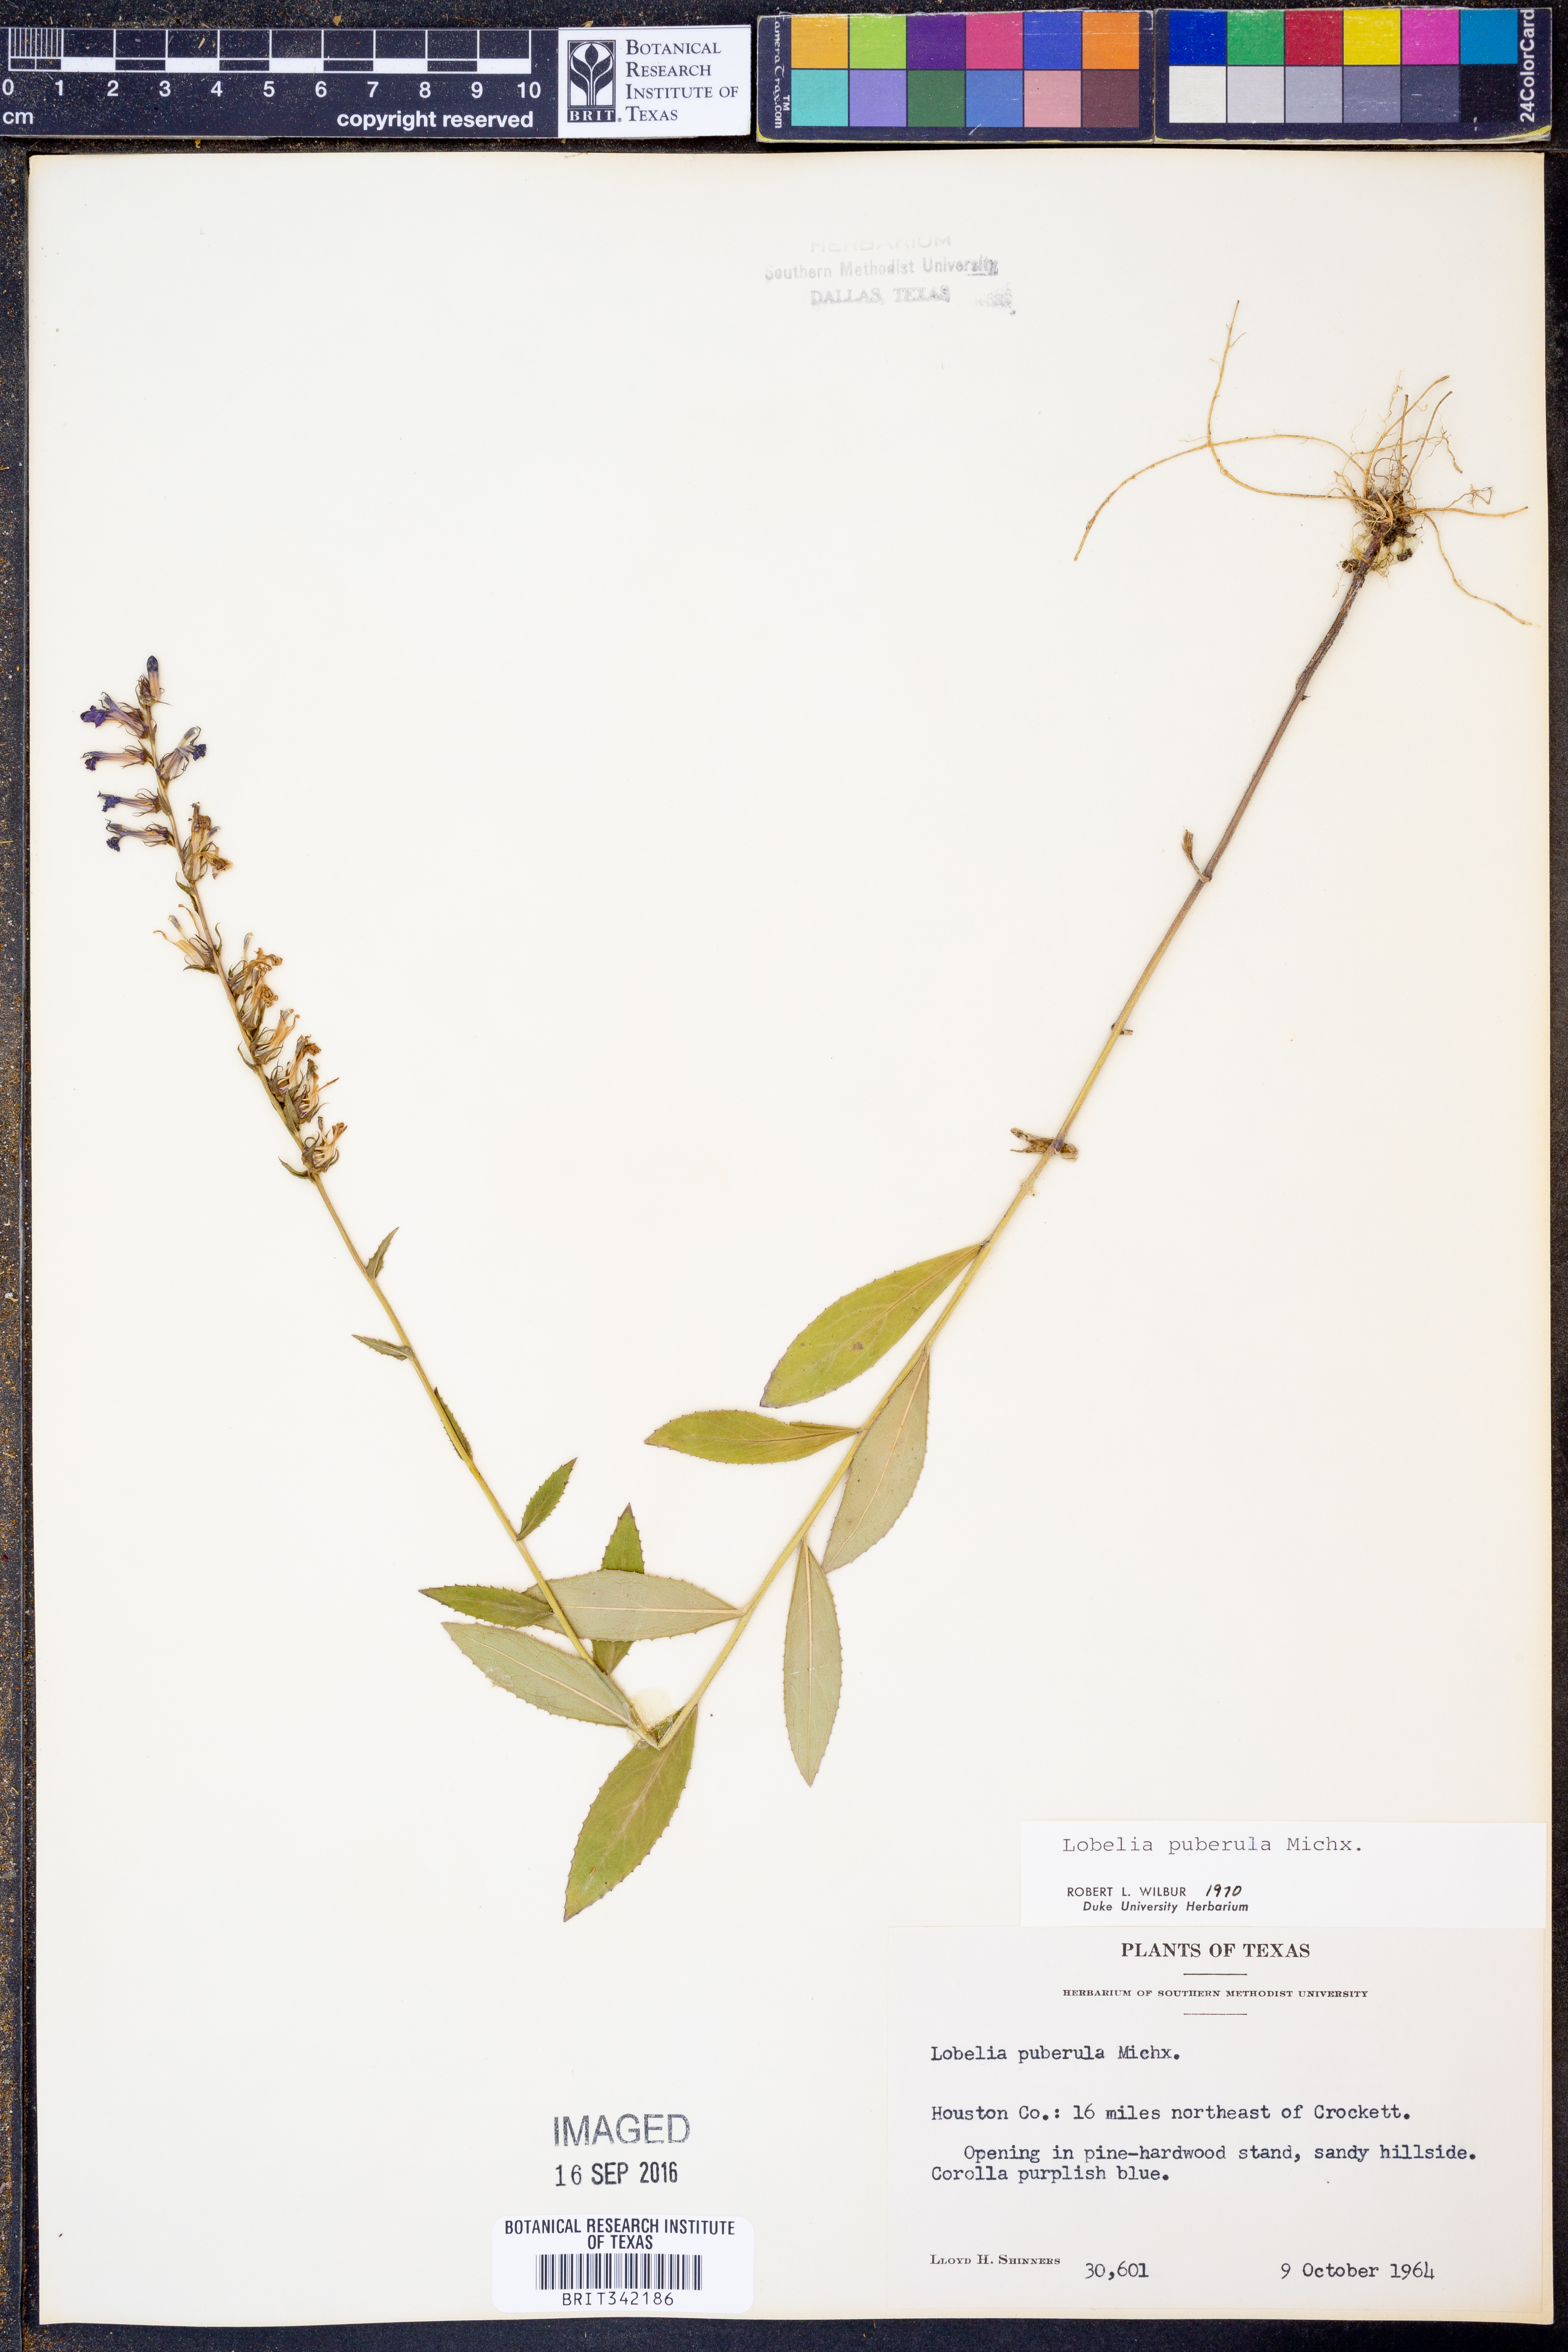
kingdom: Plantae
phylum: Tracheophyta
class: Magnoliopsida
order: Asterales
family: Campanulaceae
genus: Lobelia
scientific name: Lobelia puberula
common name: Purple dewdrop
